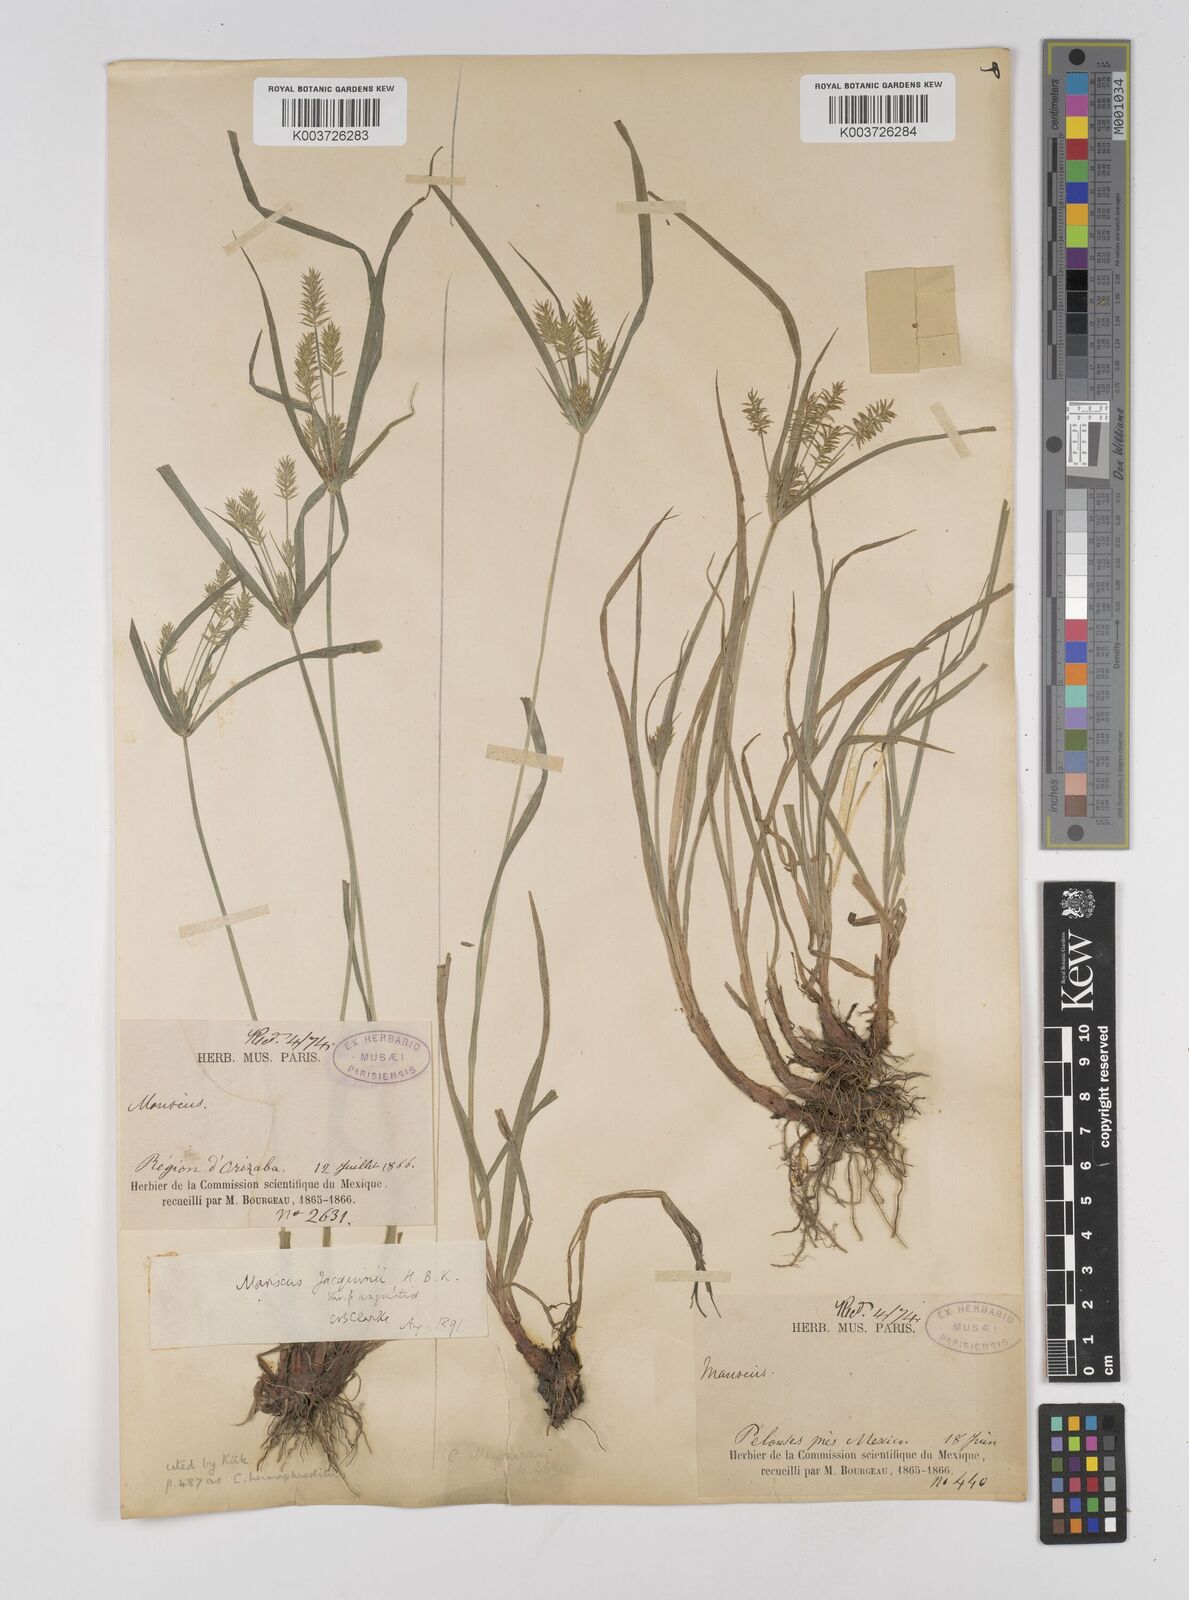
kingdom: Plantae
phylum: Tracheophyta
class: Liliopsida
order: Poales
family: Cyperaceae
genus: Cyperus
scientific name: Cyperus hermaphroditus
